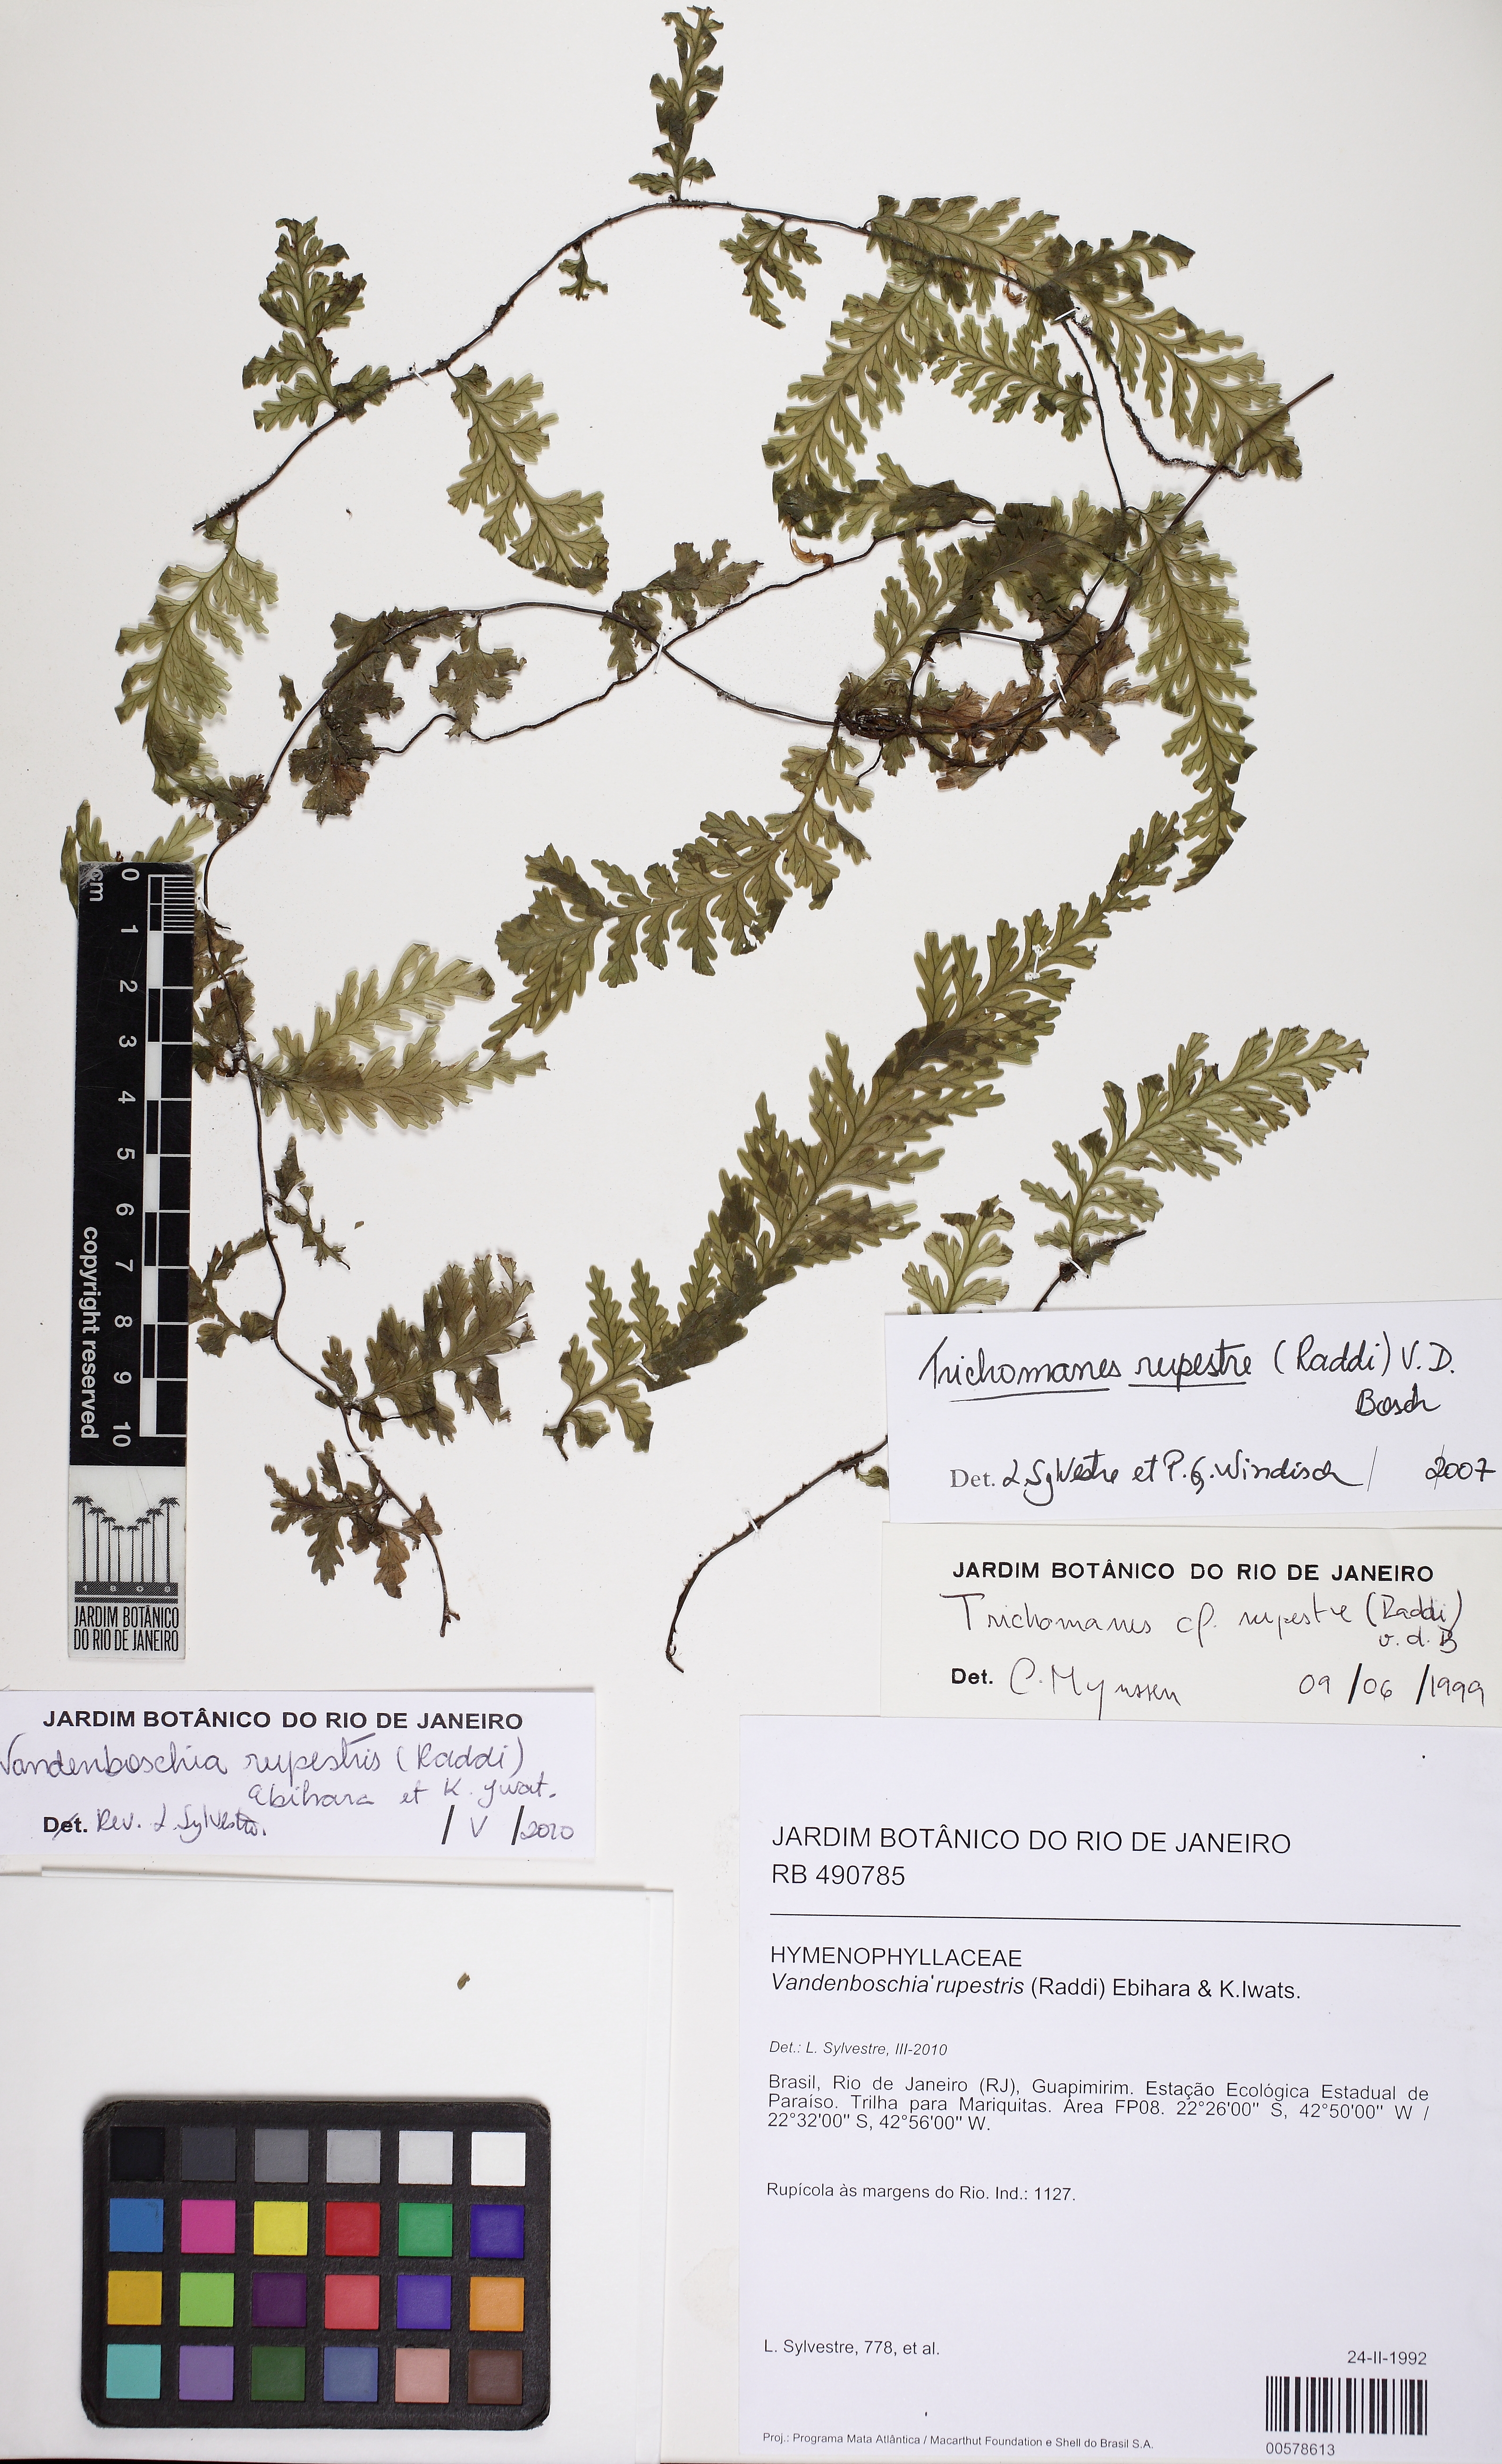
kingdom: Plantae
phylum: Tracheophyta
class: Polypodiopsida
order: Hymenophyllales
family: Hymenophyllaceae
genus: Vandenboschia
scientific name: Vandenboschia rupestris
